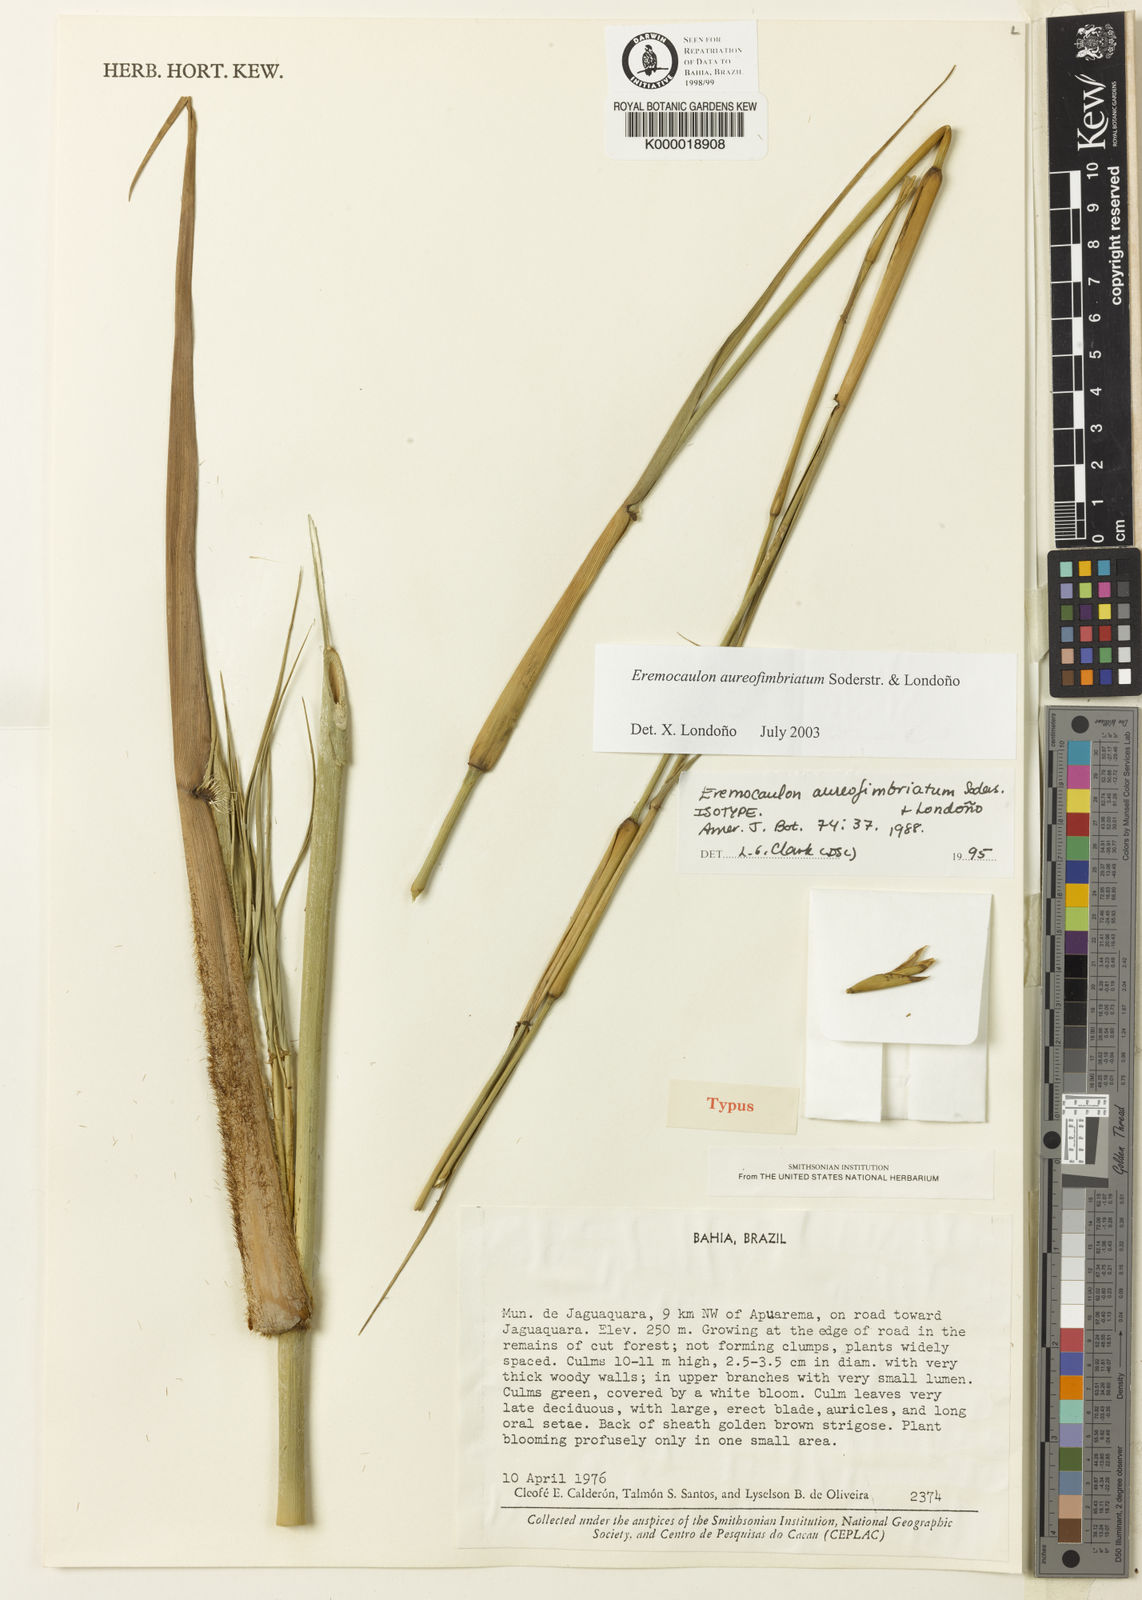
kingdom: Plantae
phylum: Tracheophyta
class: Liliopsida
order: Poales
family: Poaceae
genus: Eremocaulon
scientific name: Eremocaulon
